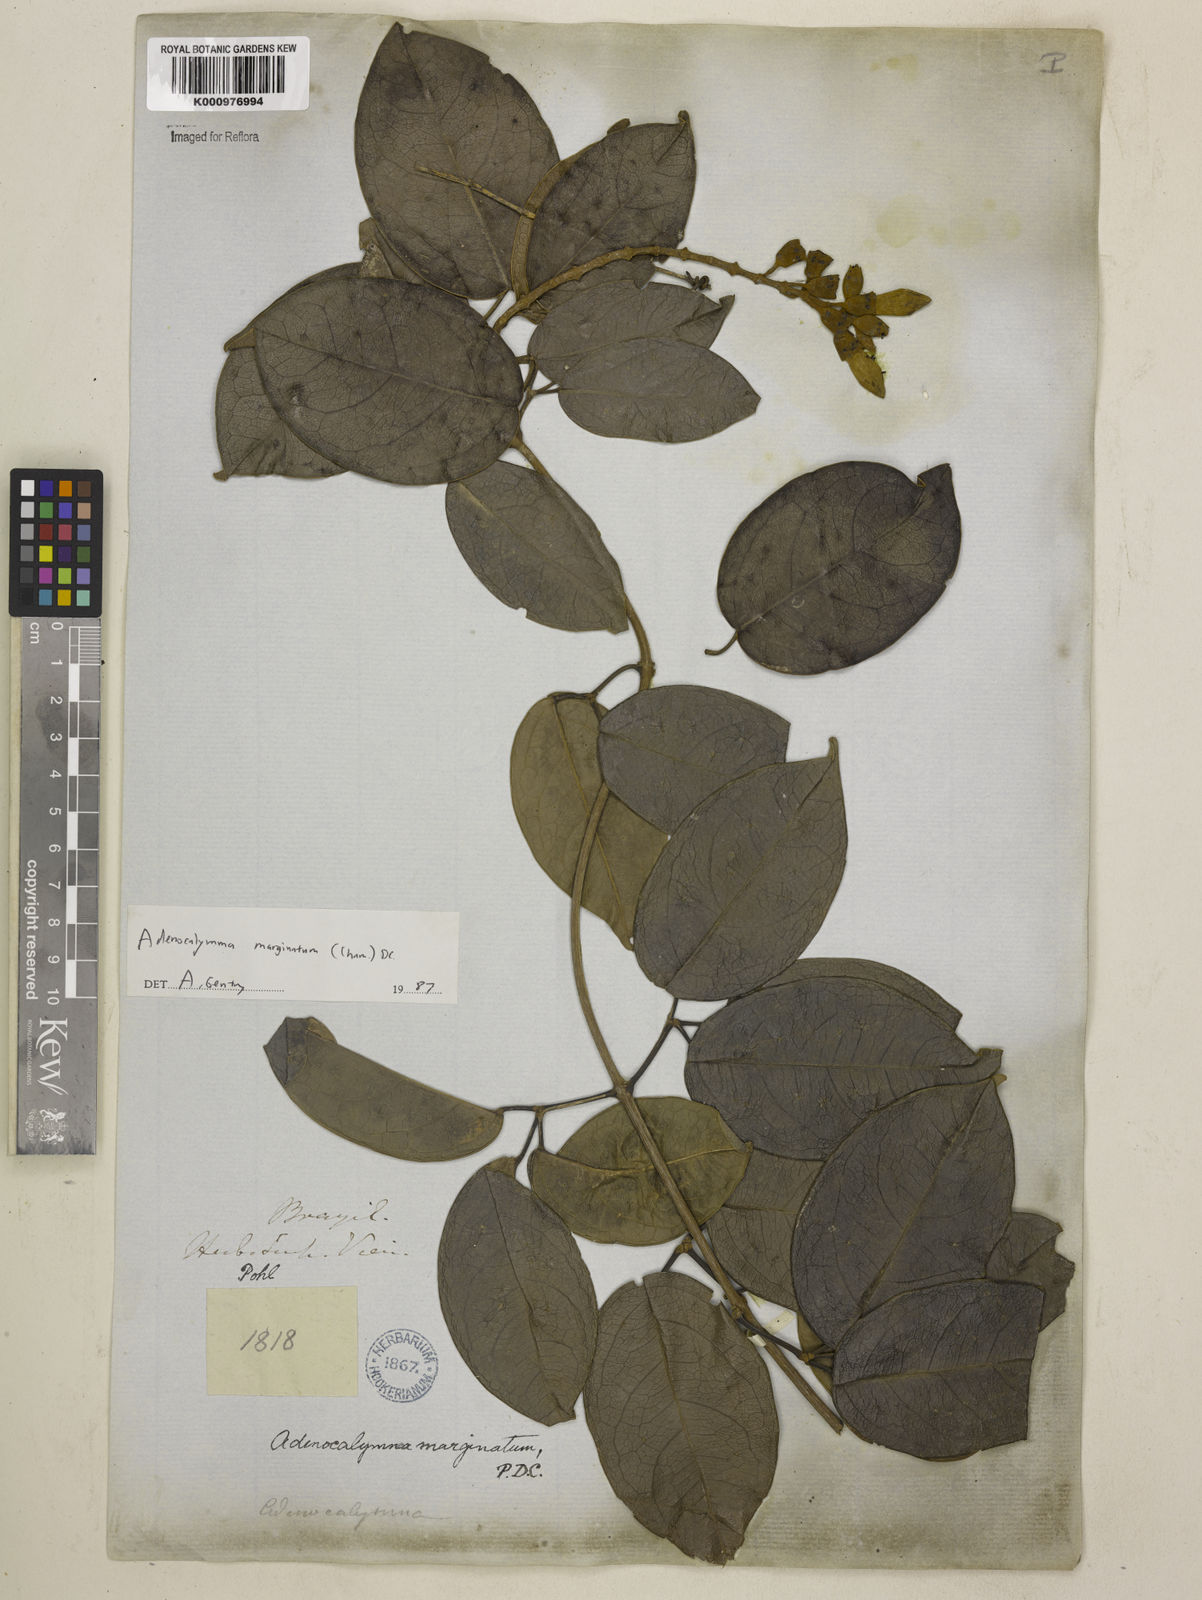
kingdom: Plantae
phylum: Tracheophyta
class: Magnoliopsida
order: Lamiales
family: Bignoniaceae
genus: Adenocalymma
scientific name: Adenocalymma marginatum
